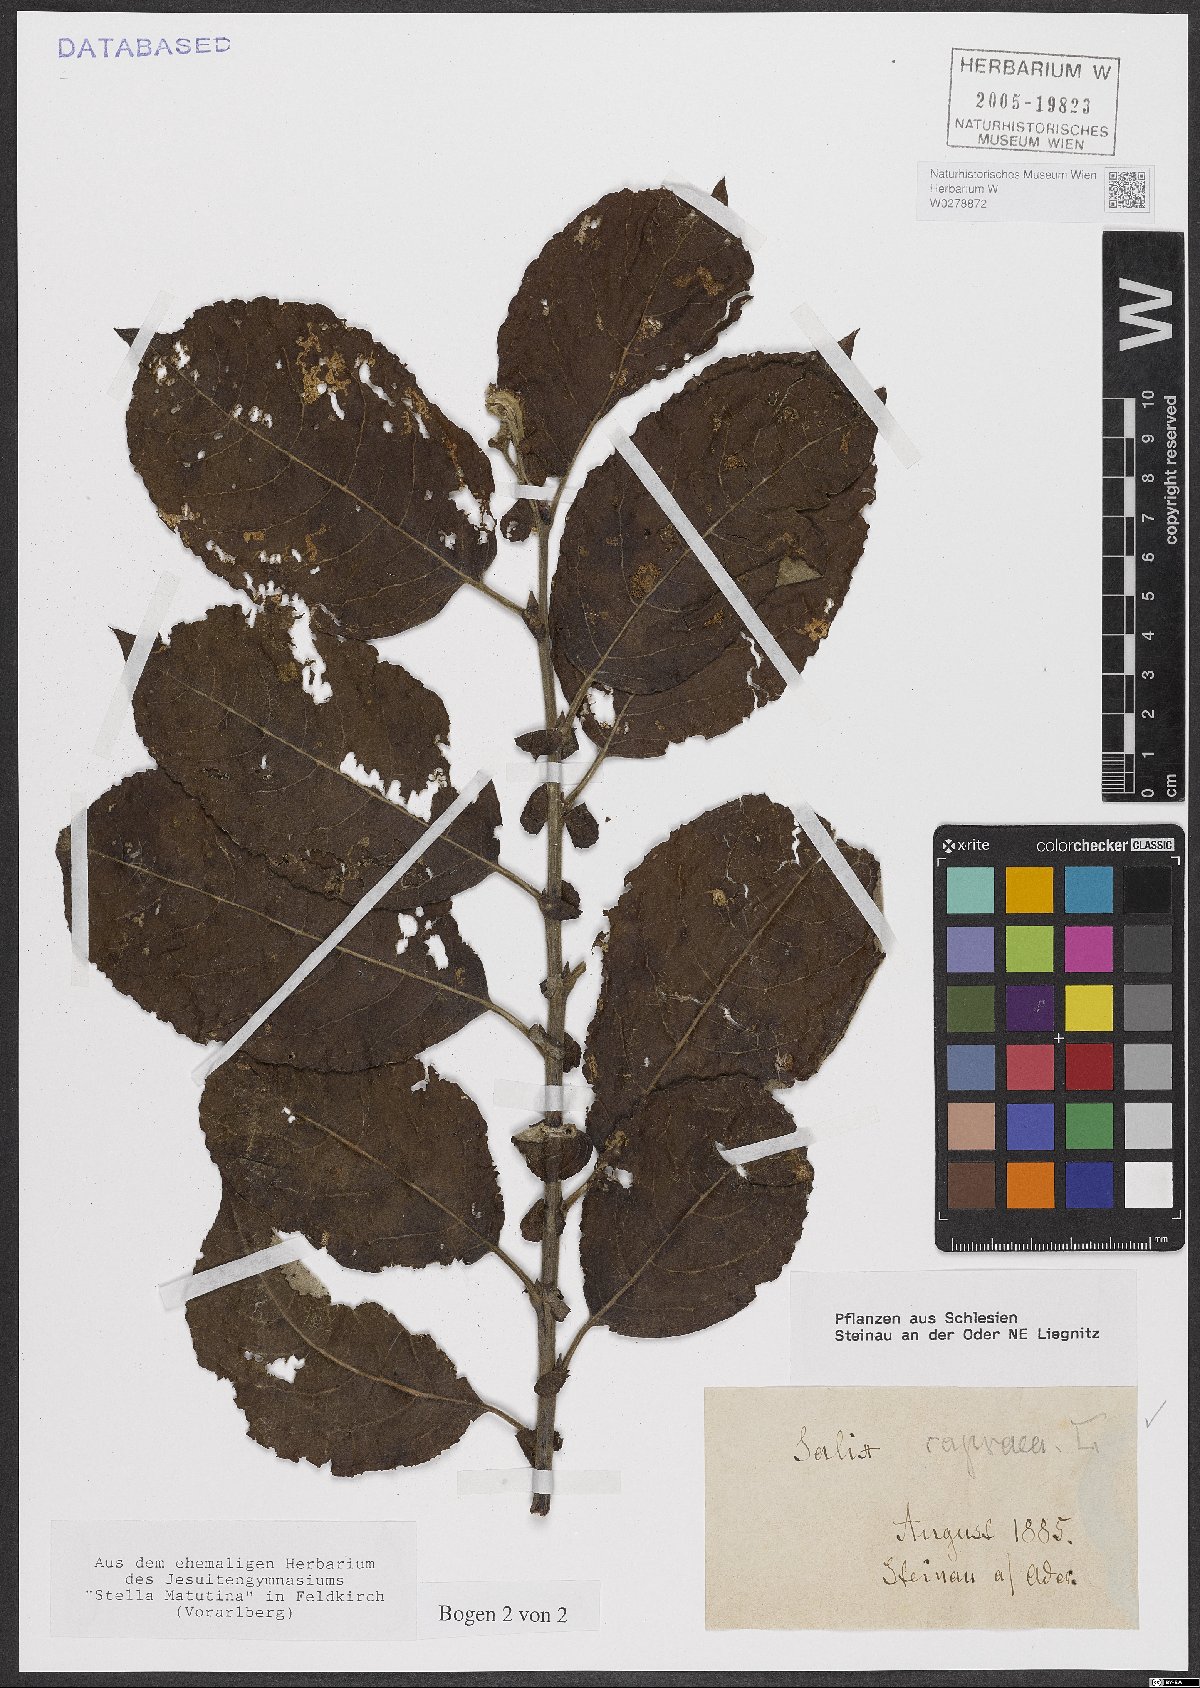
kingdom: Plantae
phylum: Tracheophyta
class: Magnoliopsida
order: Malpighiales
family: Salicaceae
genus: Salix
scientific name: Salix caprea
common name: Goat willow
